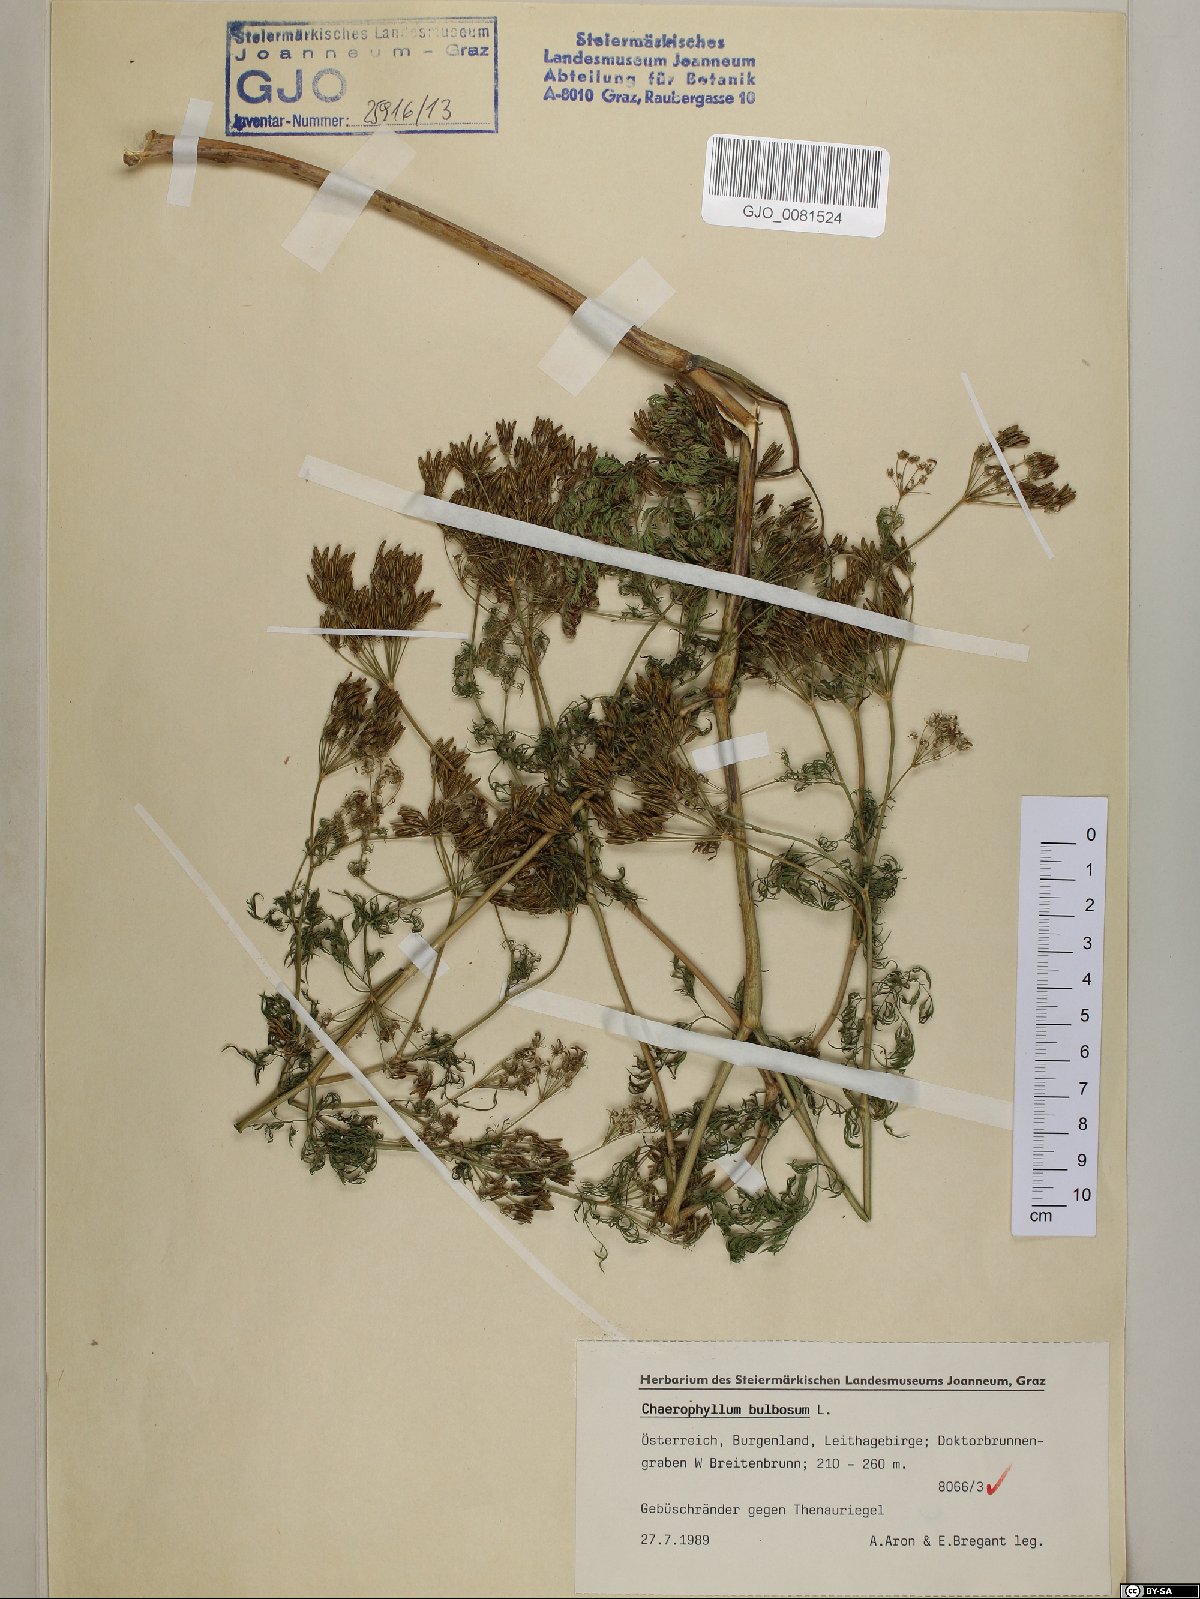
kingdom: Plantae
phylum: Tracheophyta
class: Magnoliopsida
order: Apiales
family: Apiaceae
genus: Chaerophyllum
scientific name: Chaerophyllum bulbosum
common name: Bulbous chervil
